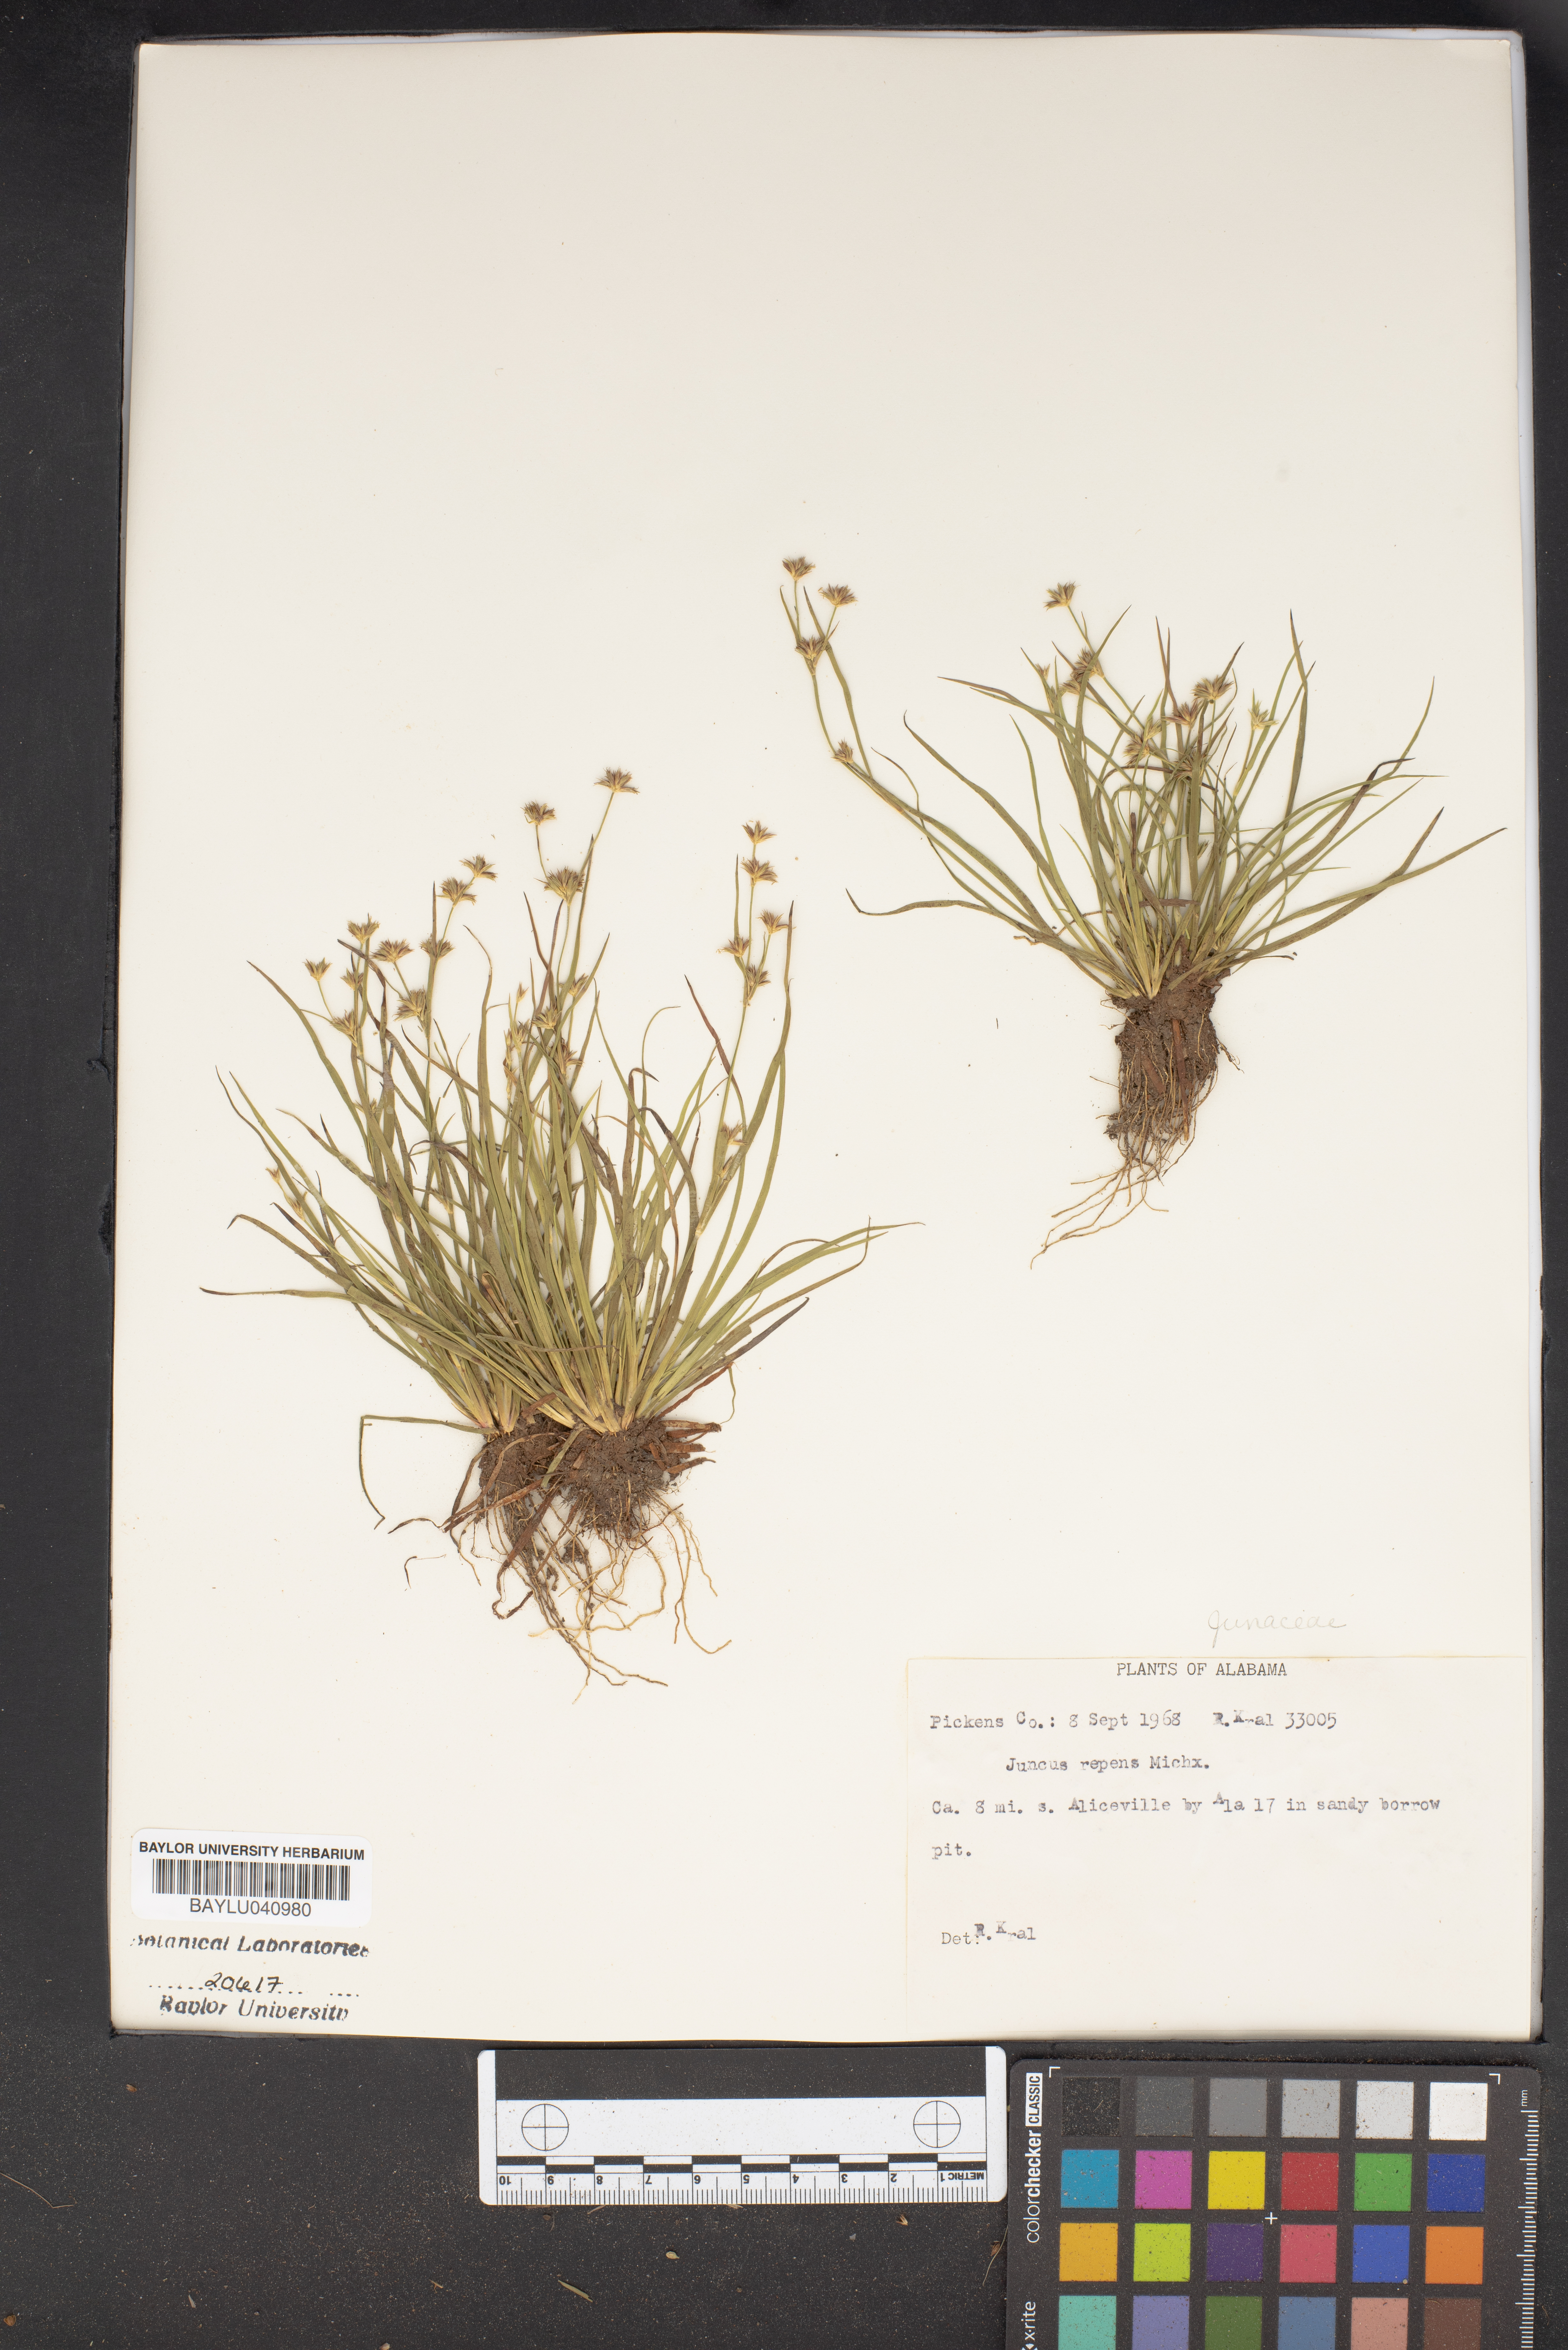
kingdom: Plantae
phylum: Tracheophyta
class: Liliopsida
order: Poales
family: Juncaceae
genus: Juncus
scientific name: Juncus repens
